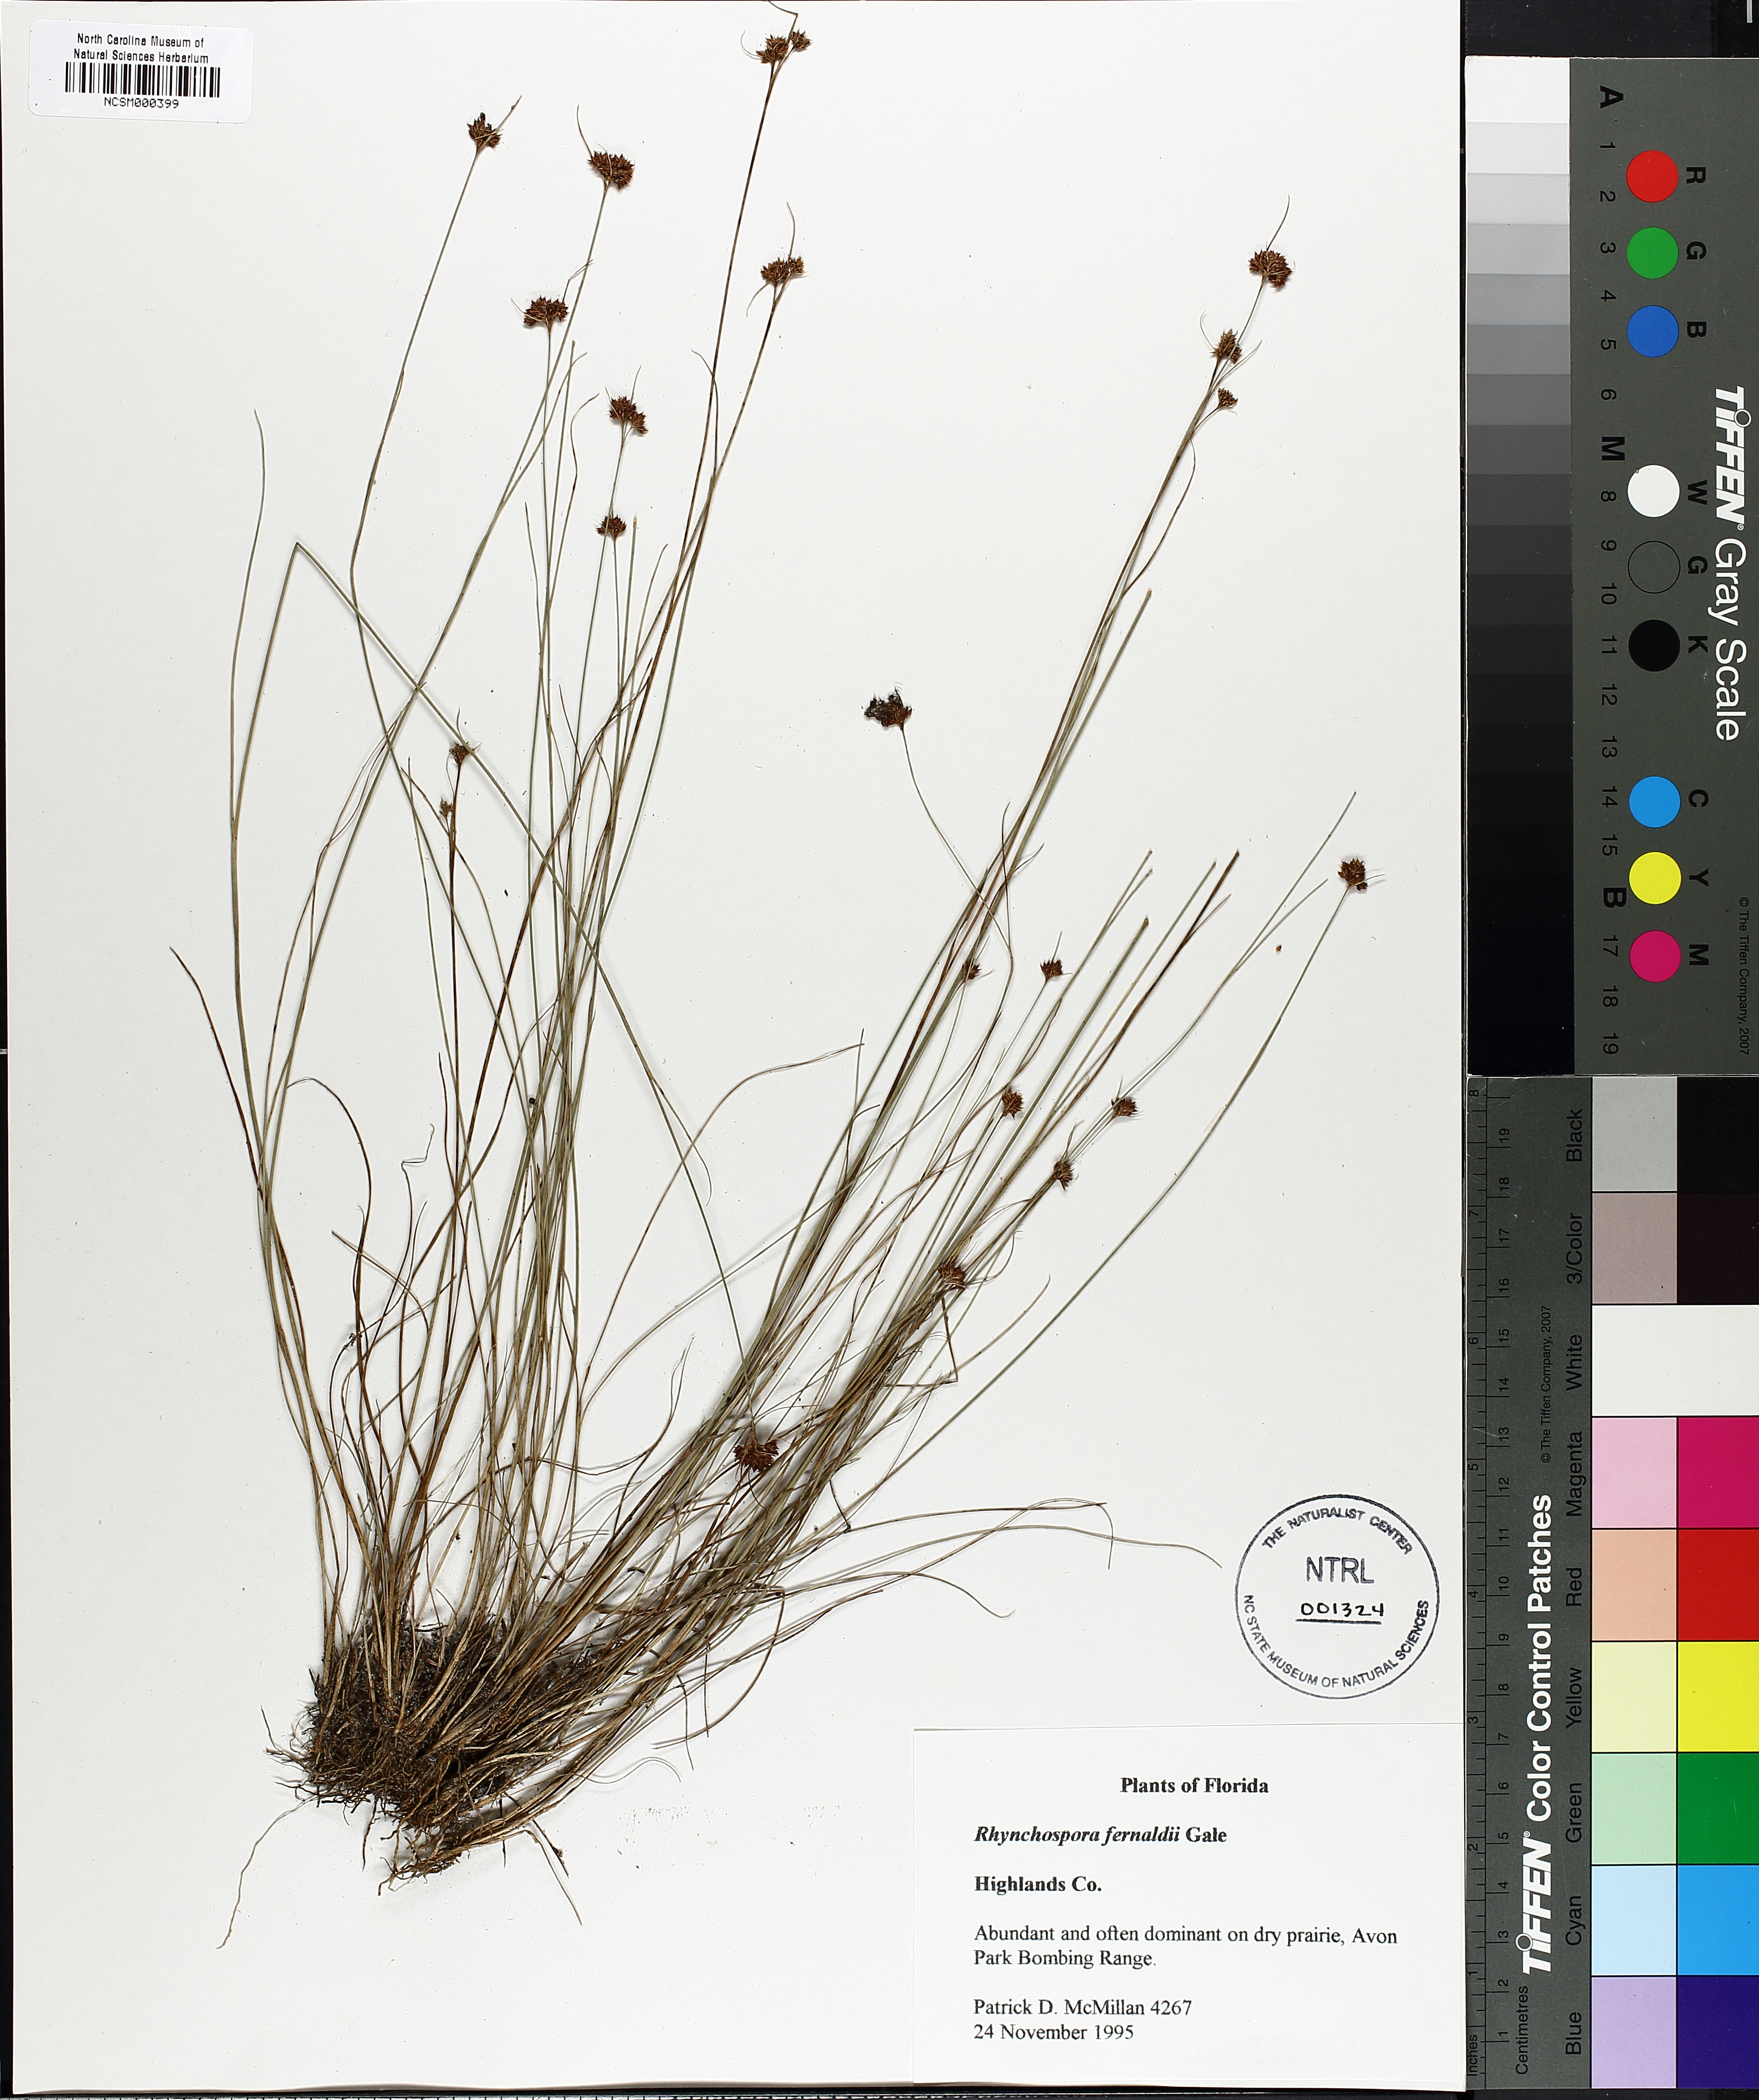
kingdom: Plantae
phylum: Tracheophyta
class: Liliopsida
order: Poales
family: Cyperaceae
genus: Rhynchospora
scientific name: Rhynchospora fernaldii
